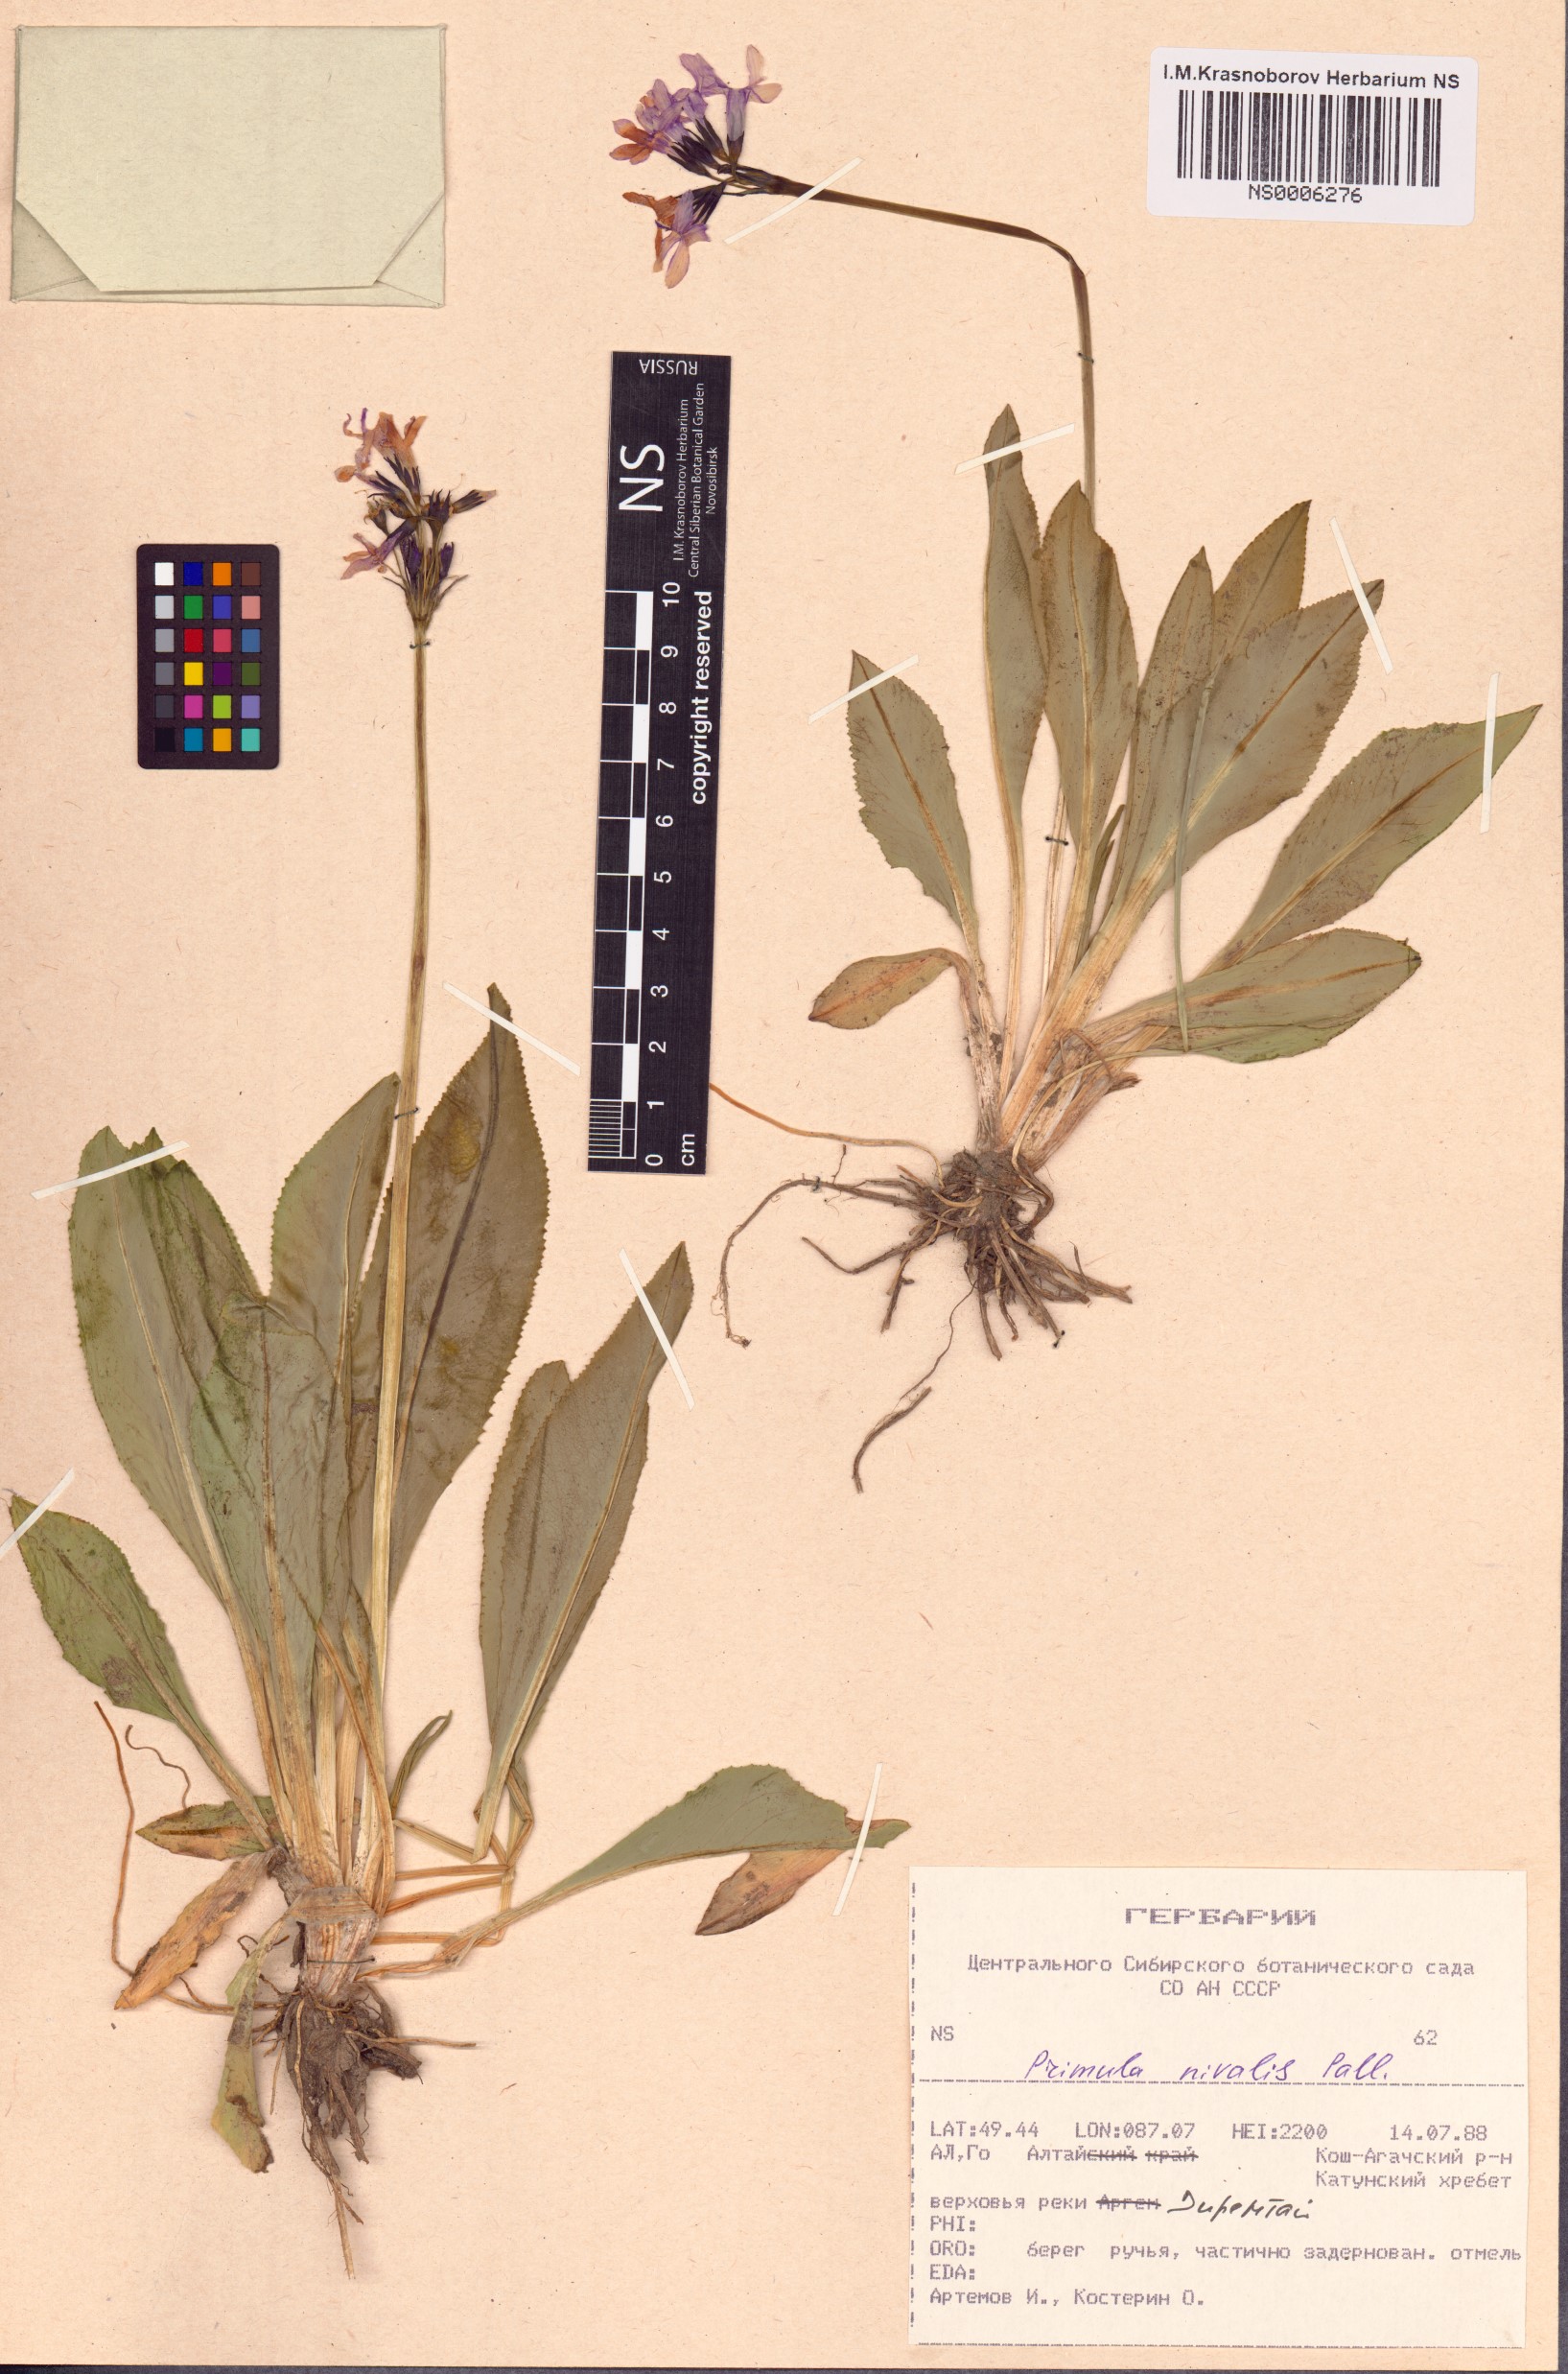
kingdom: Plantae
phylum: Tracheophyta
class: Magnoliopsida
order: Ericales
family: Primulaceae
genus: Primula
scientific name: Primula nivalis
